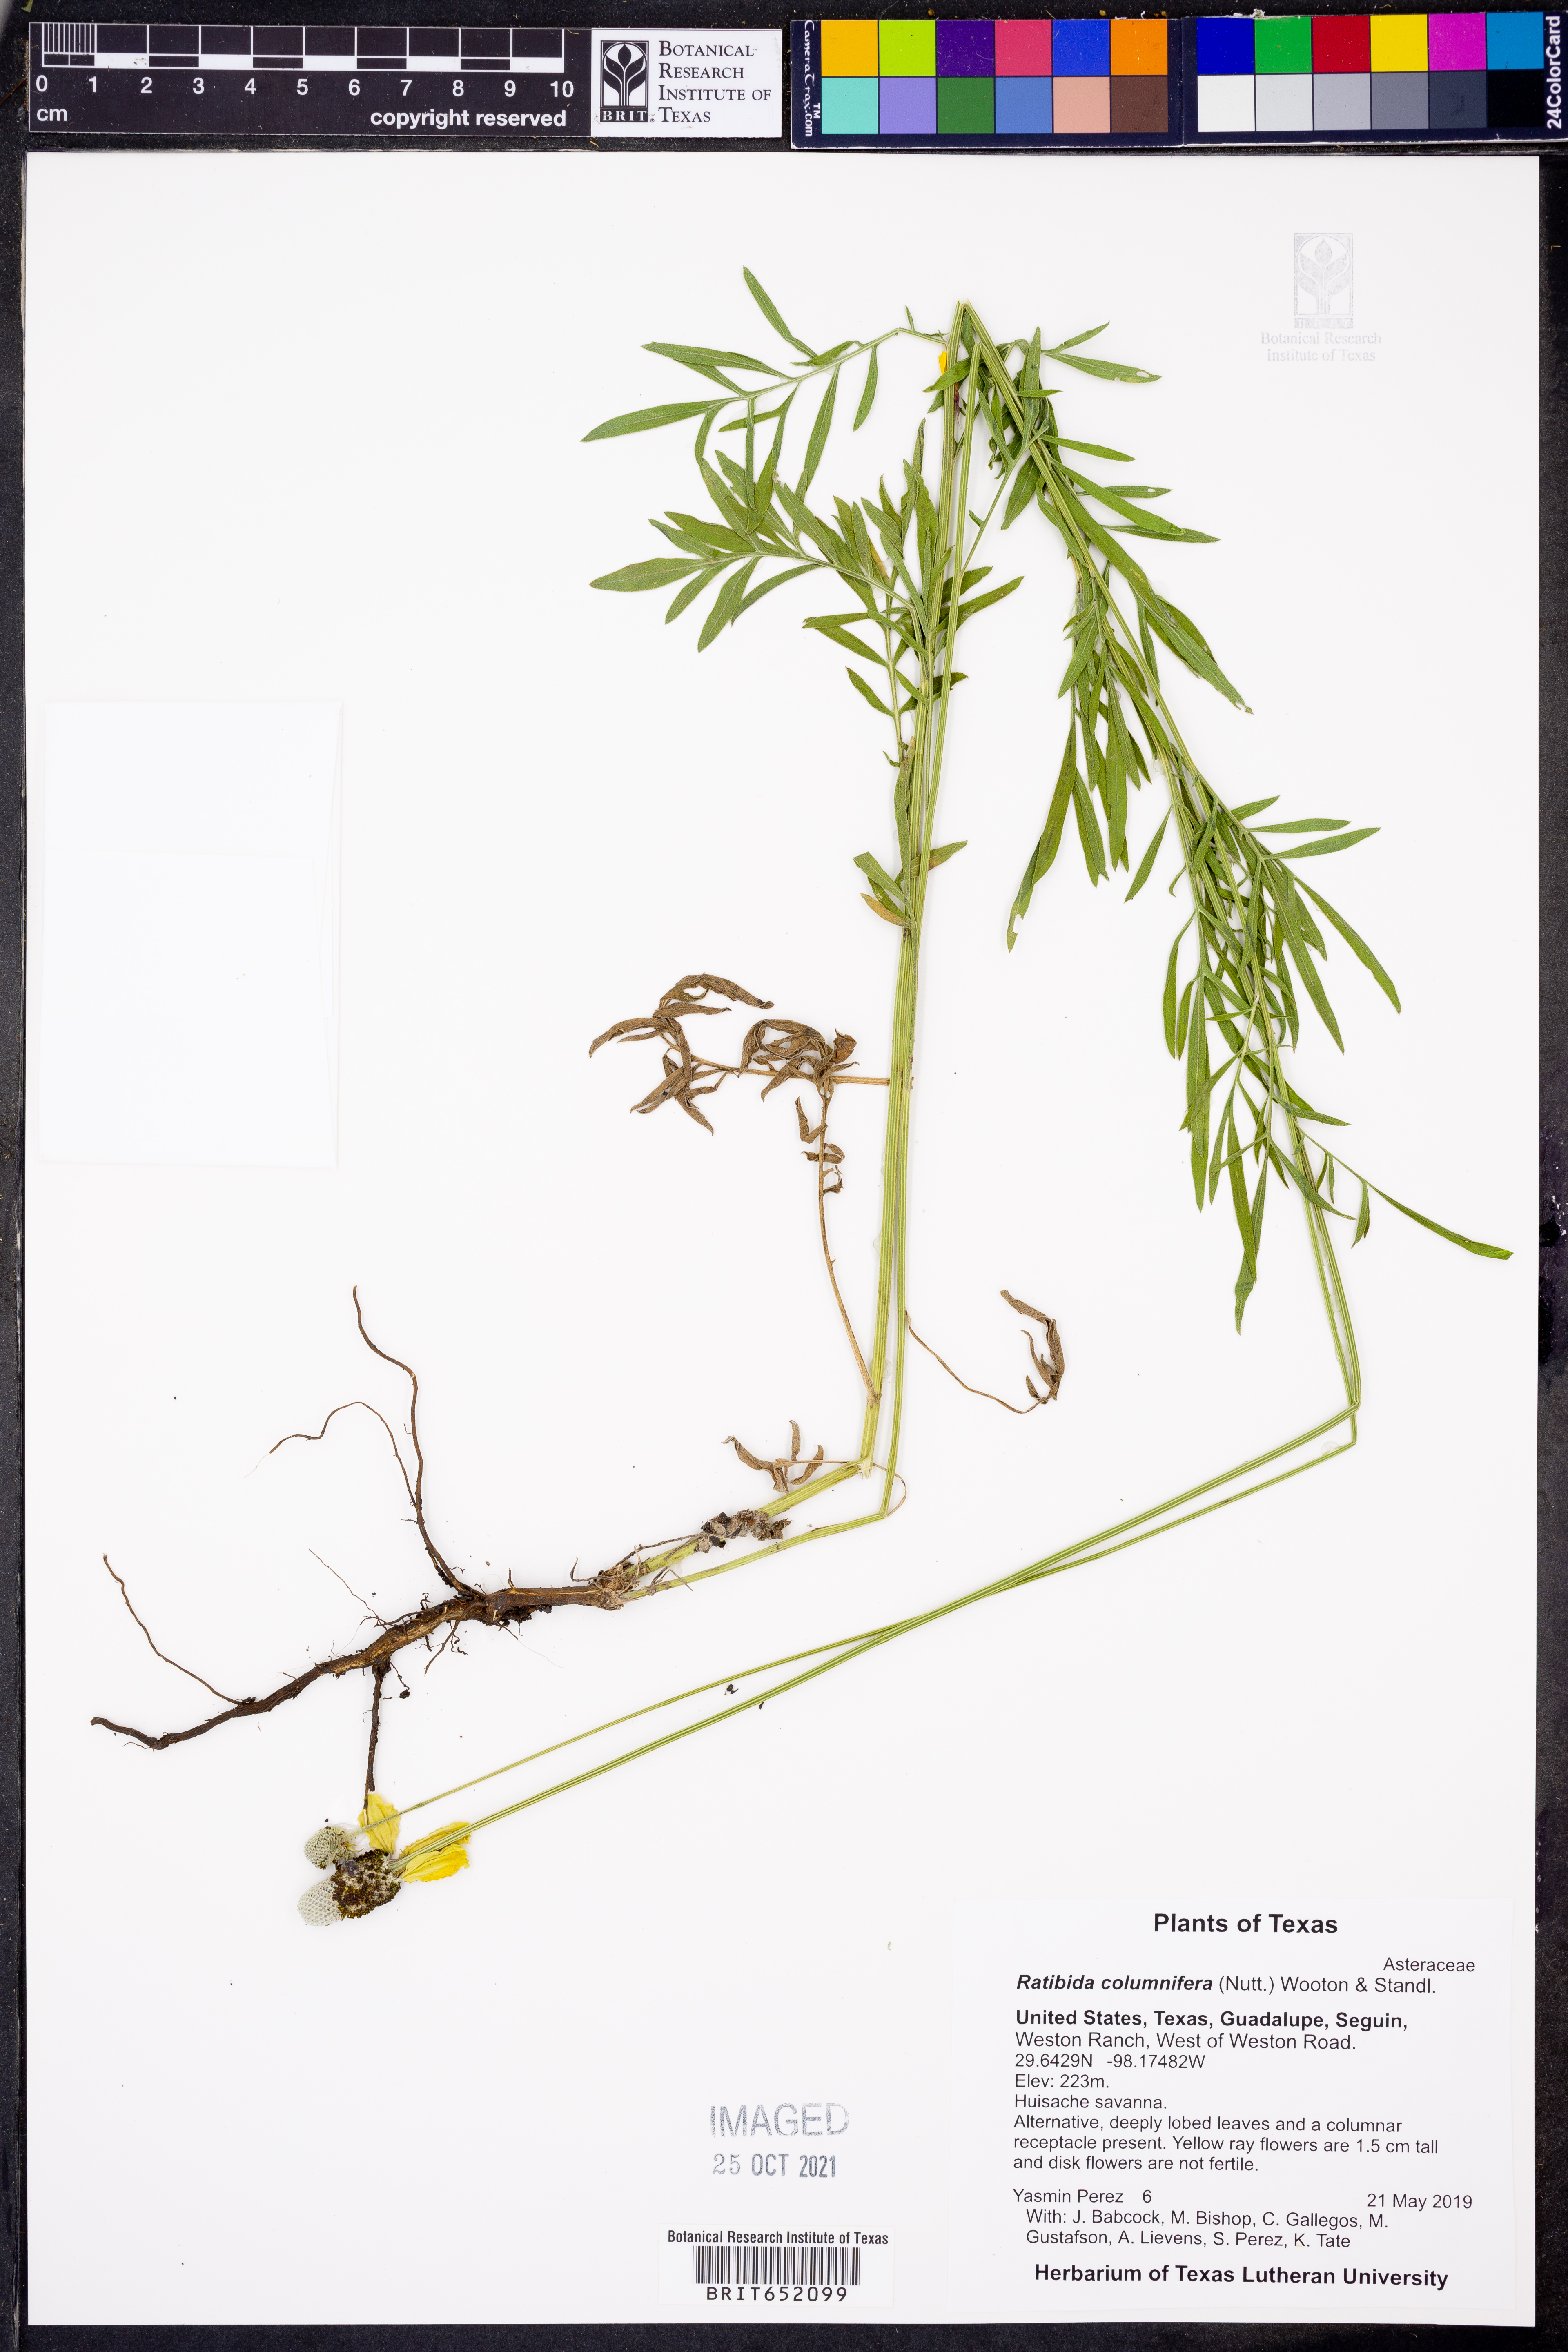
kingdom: Plantae
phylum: Tracheophyta
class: Magnoliopsida
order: Asterales
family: Asteraceae
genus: Ratibida
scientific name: Ratibida columnifera
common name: Prairie coneflower
